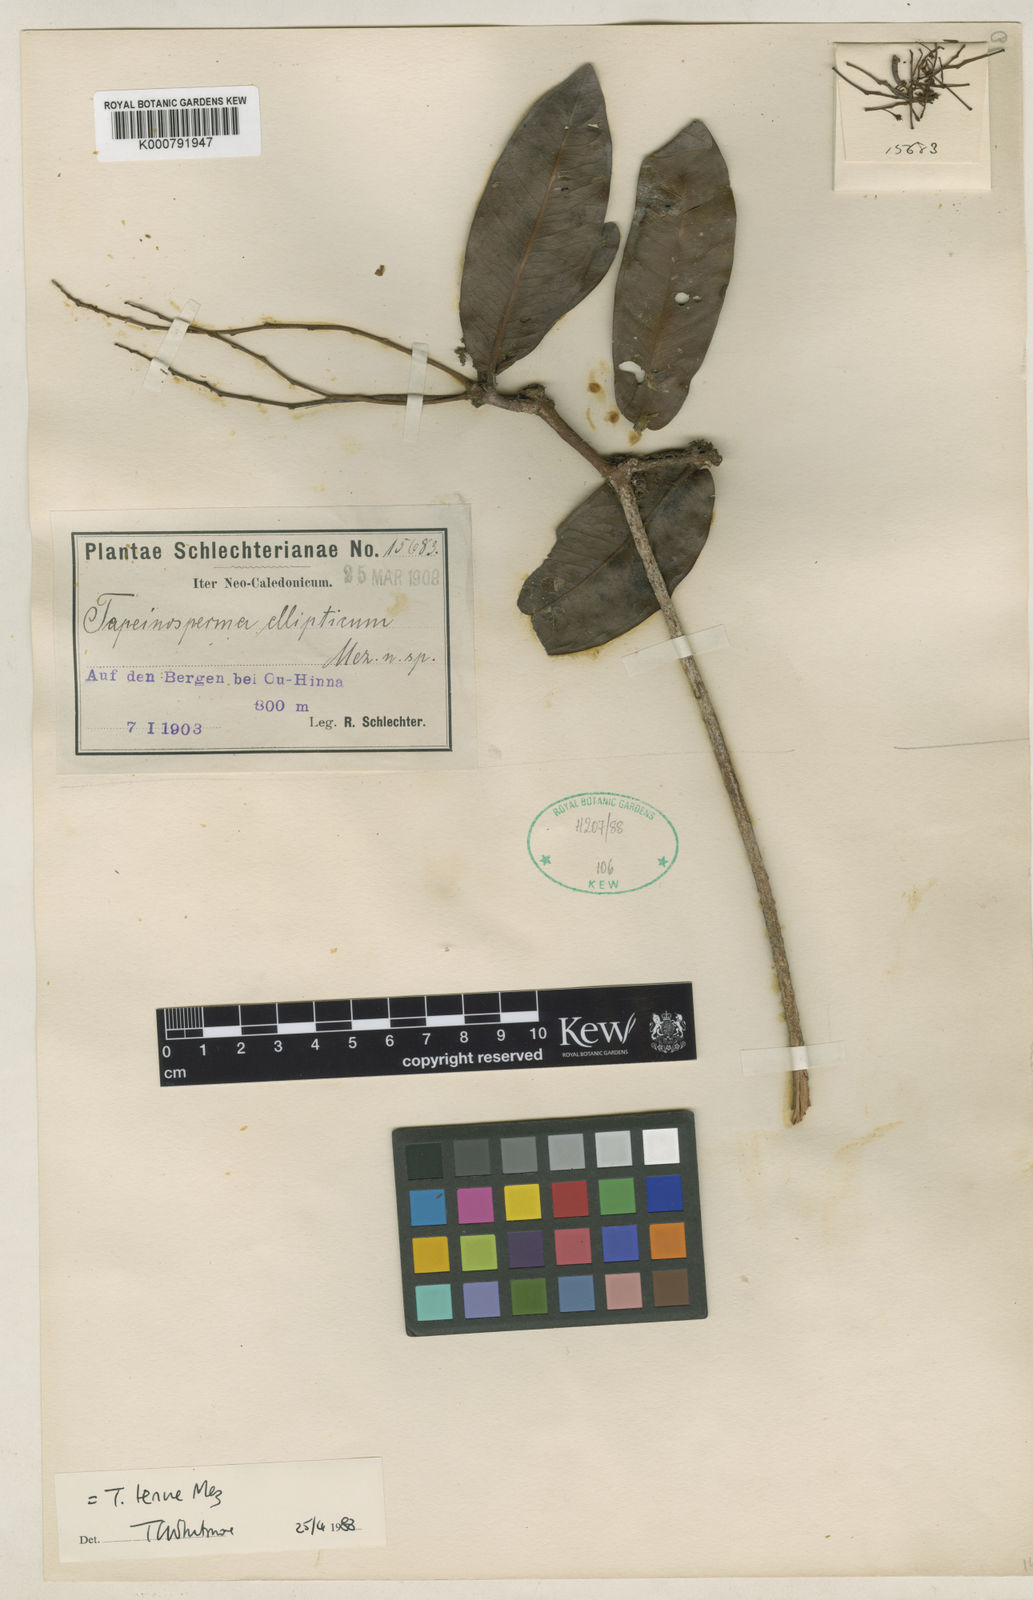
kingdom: Plantae
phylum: Tracheophyta
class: Magnoliopsida
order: Ericales
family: Primulaceae
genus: Tapeinosperma
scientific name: Tapeinosperma tenue
